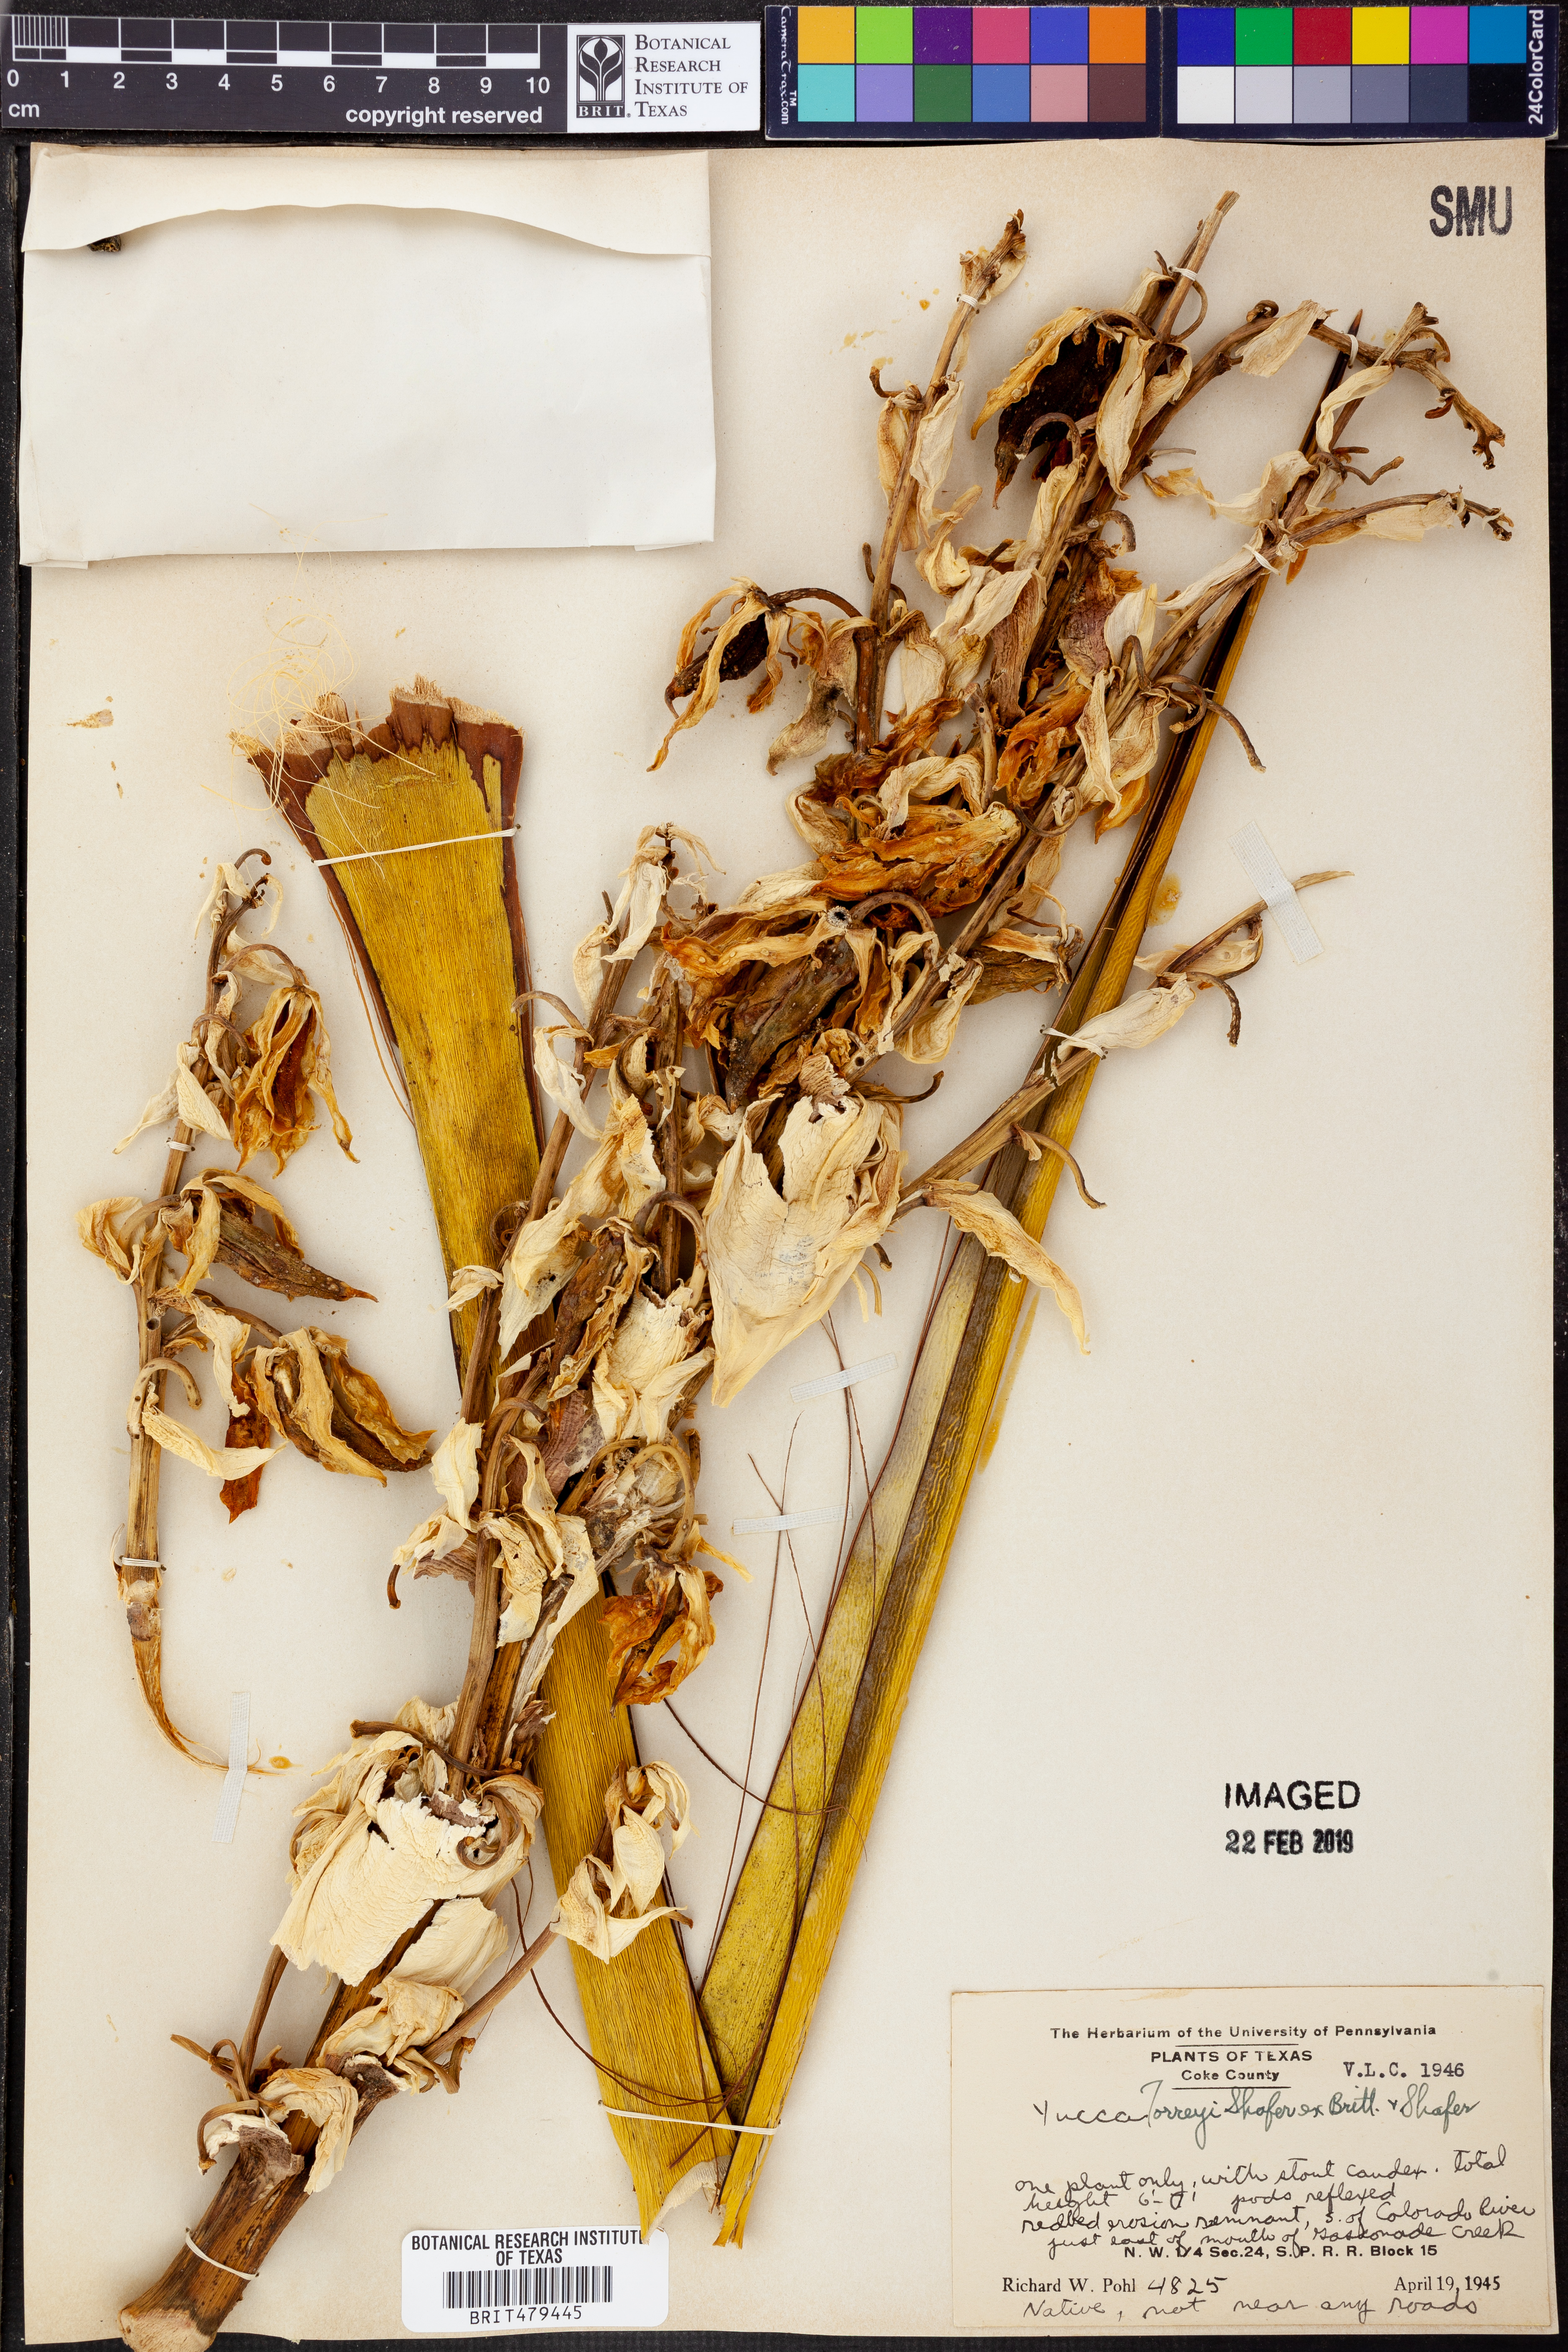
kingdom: Plantae
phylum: Tracheophyta
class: Liliopsida
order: Asparagales
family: Asparagaceae
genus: Yucca
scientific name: Yucca treculiana
